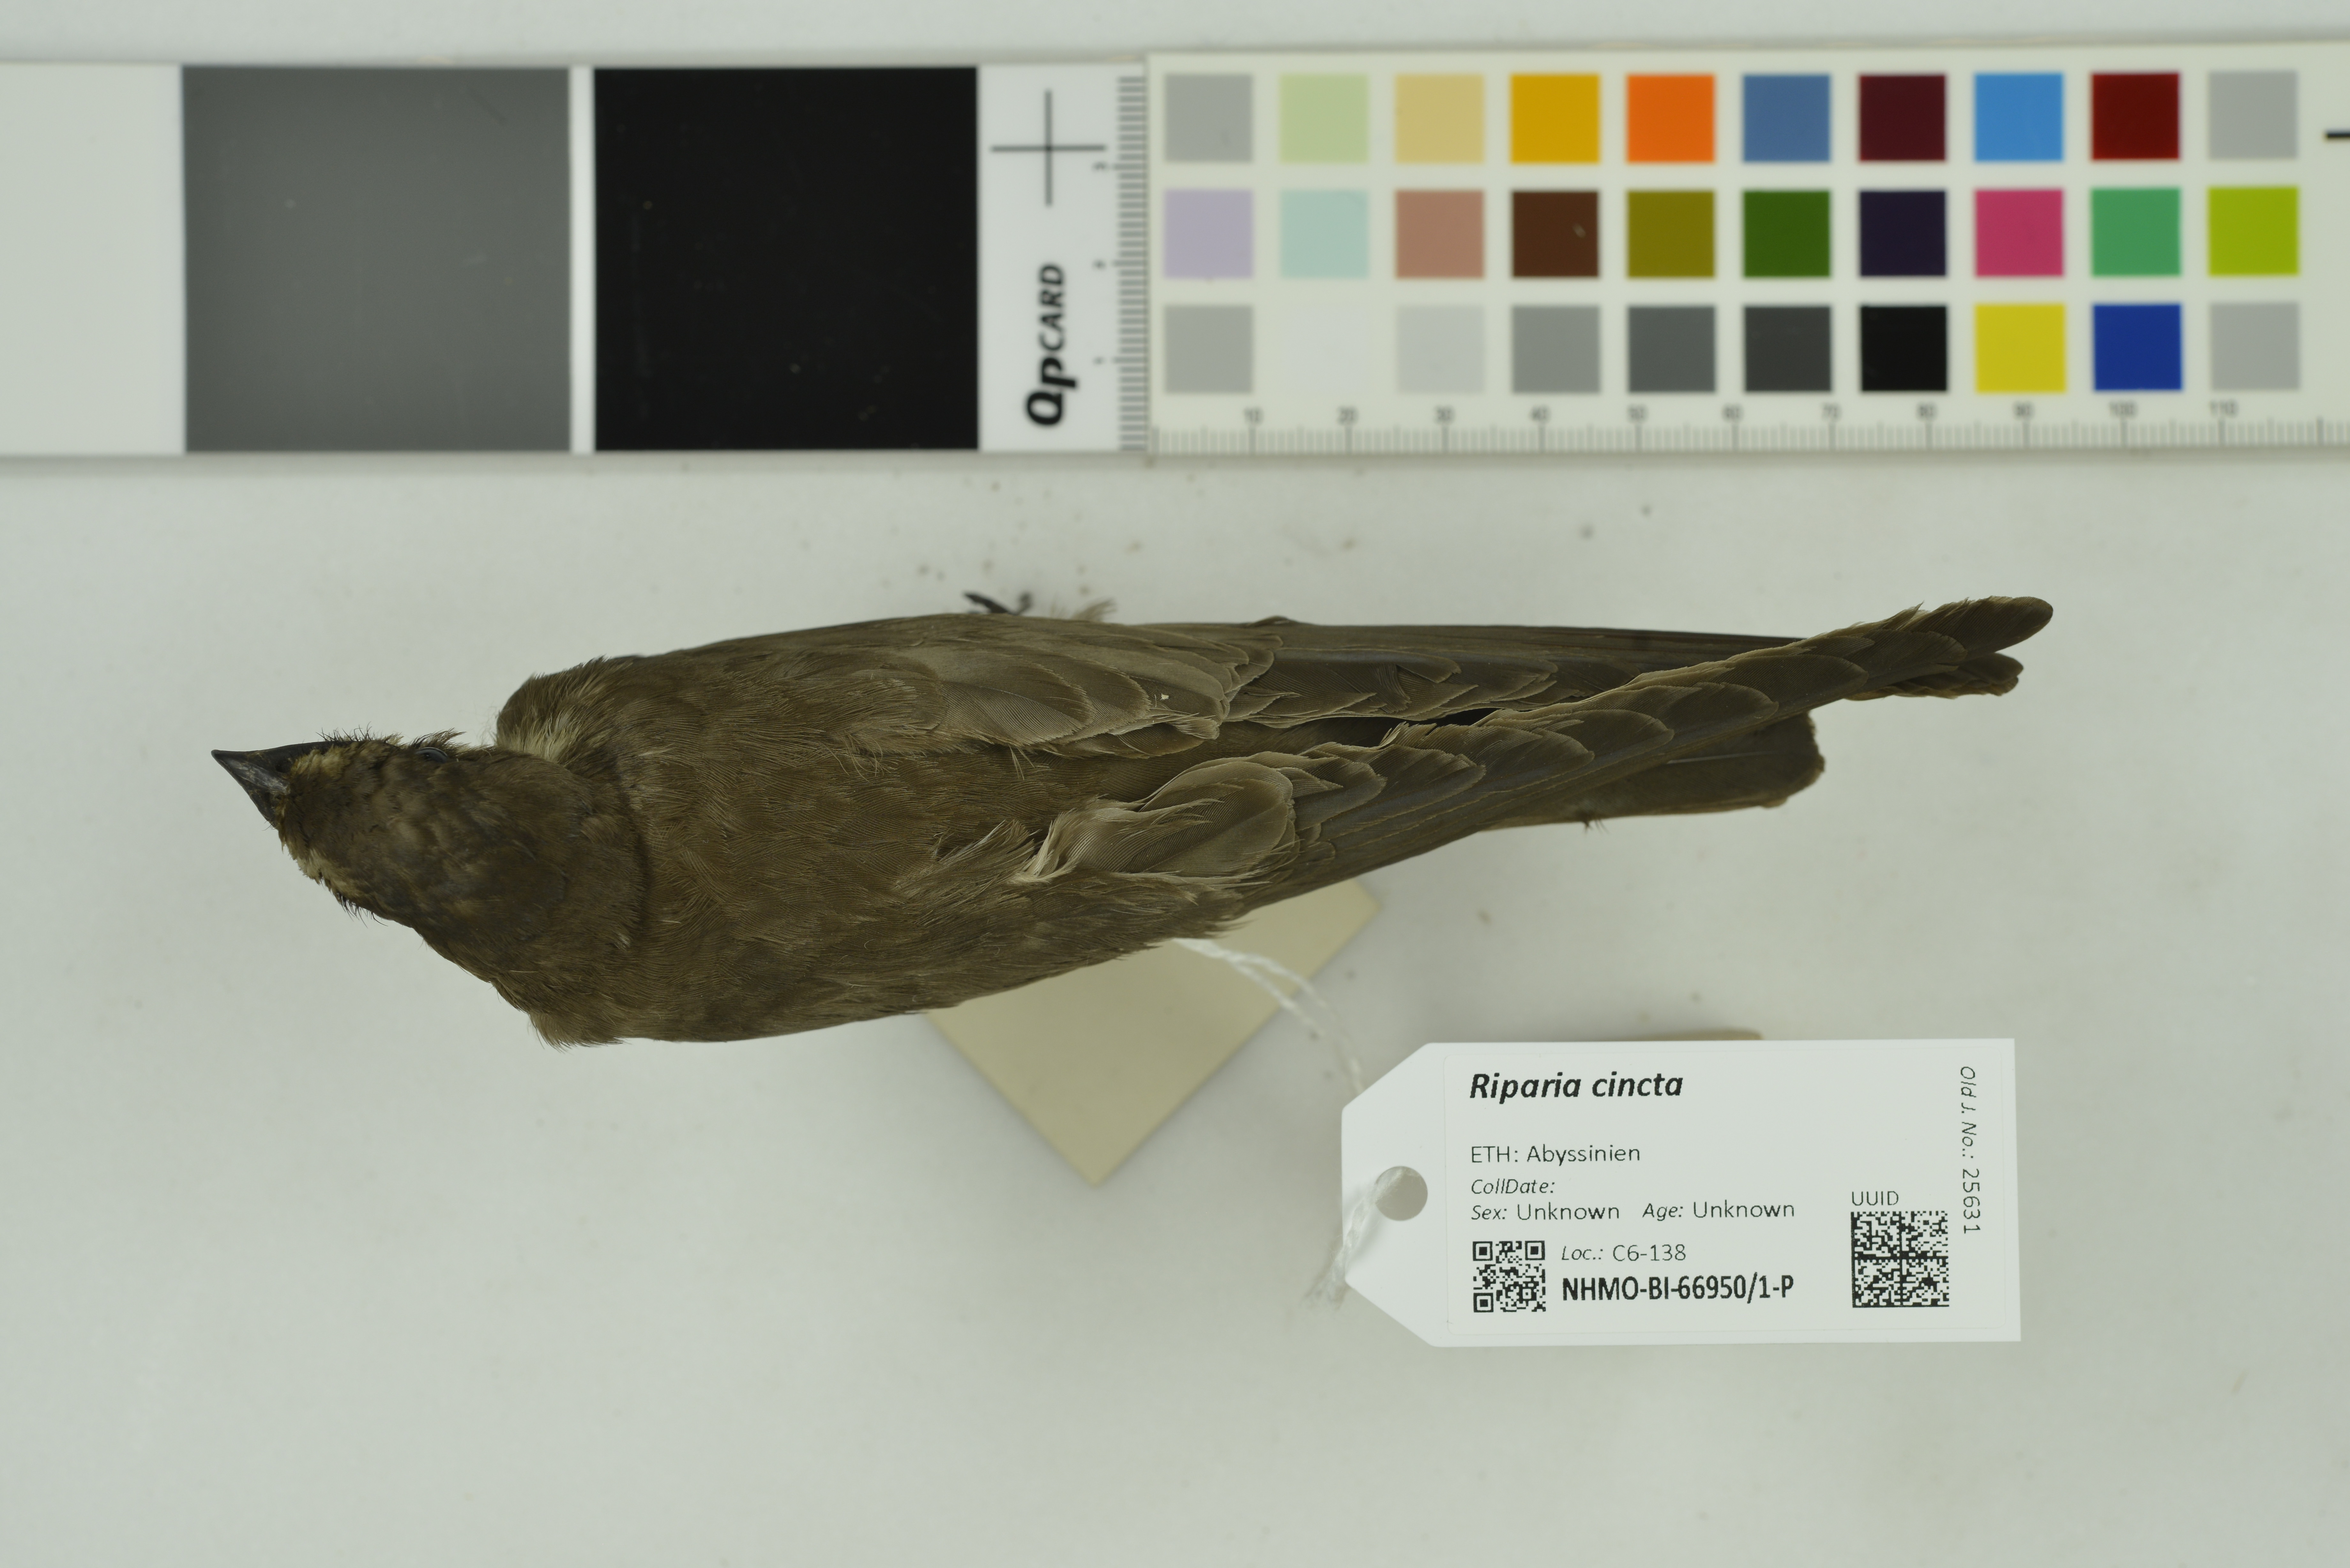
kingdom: Animalia
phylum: Chordata
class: Aves
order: Passeriformes
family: Hirundinidae
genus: Riparia
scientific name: Riparia cincta
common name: Banded martin
